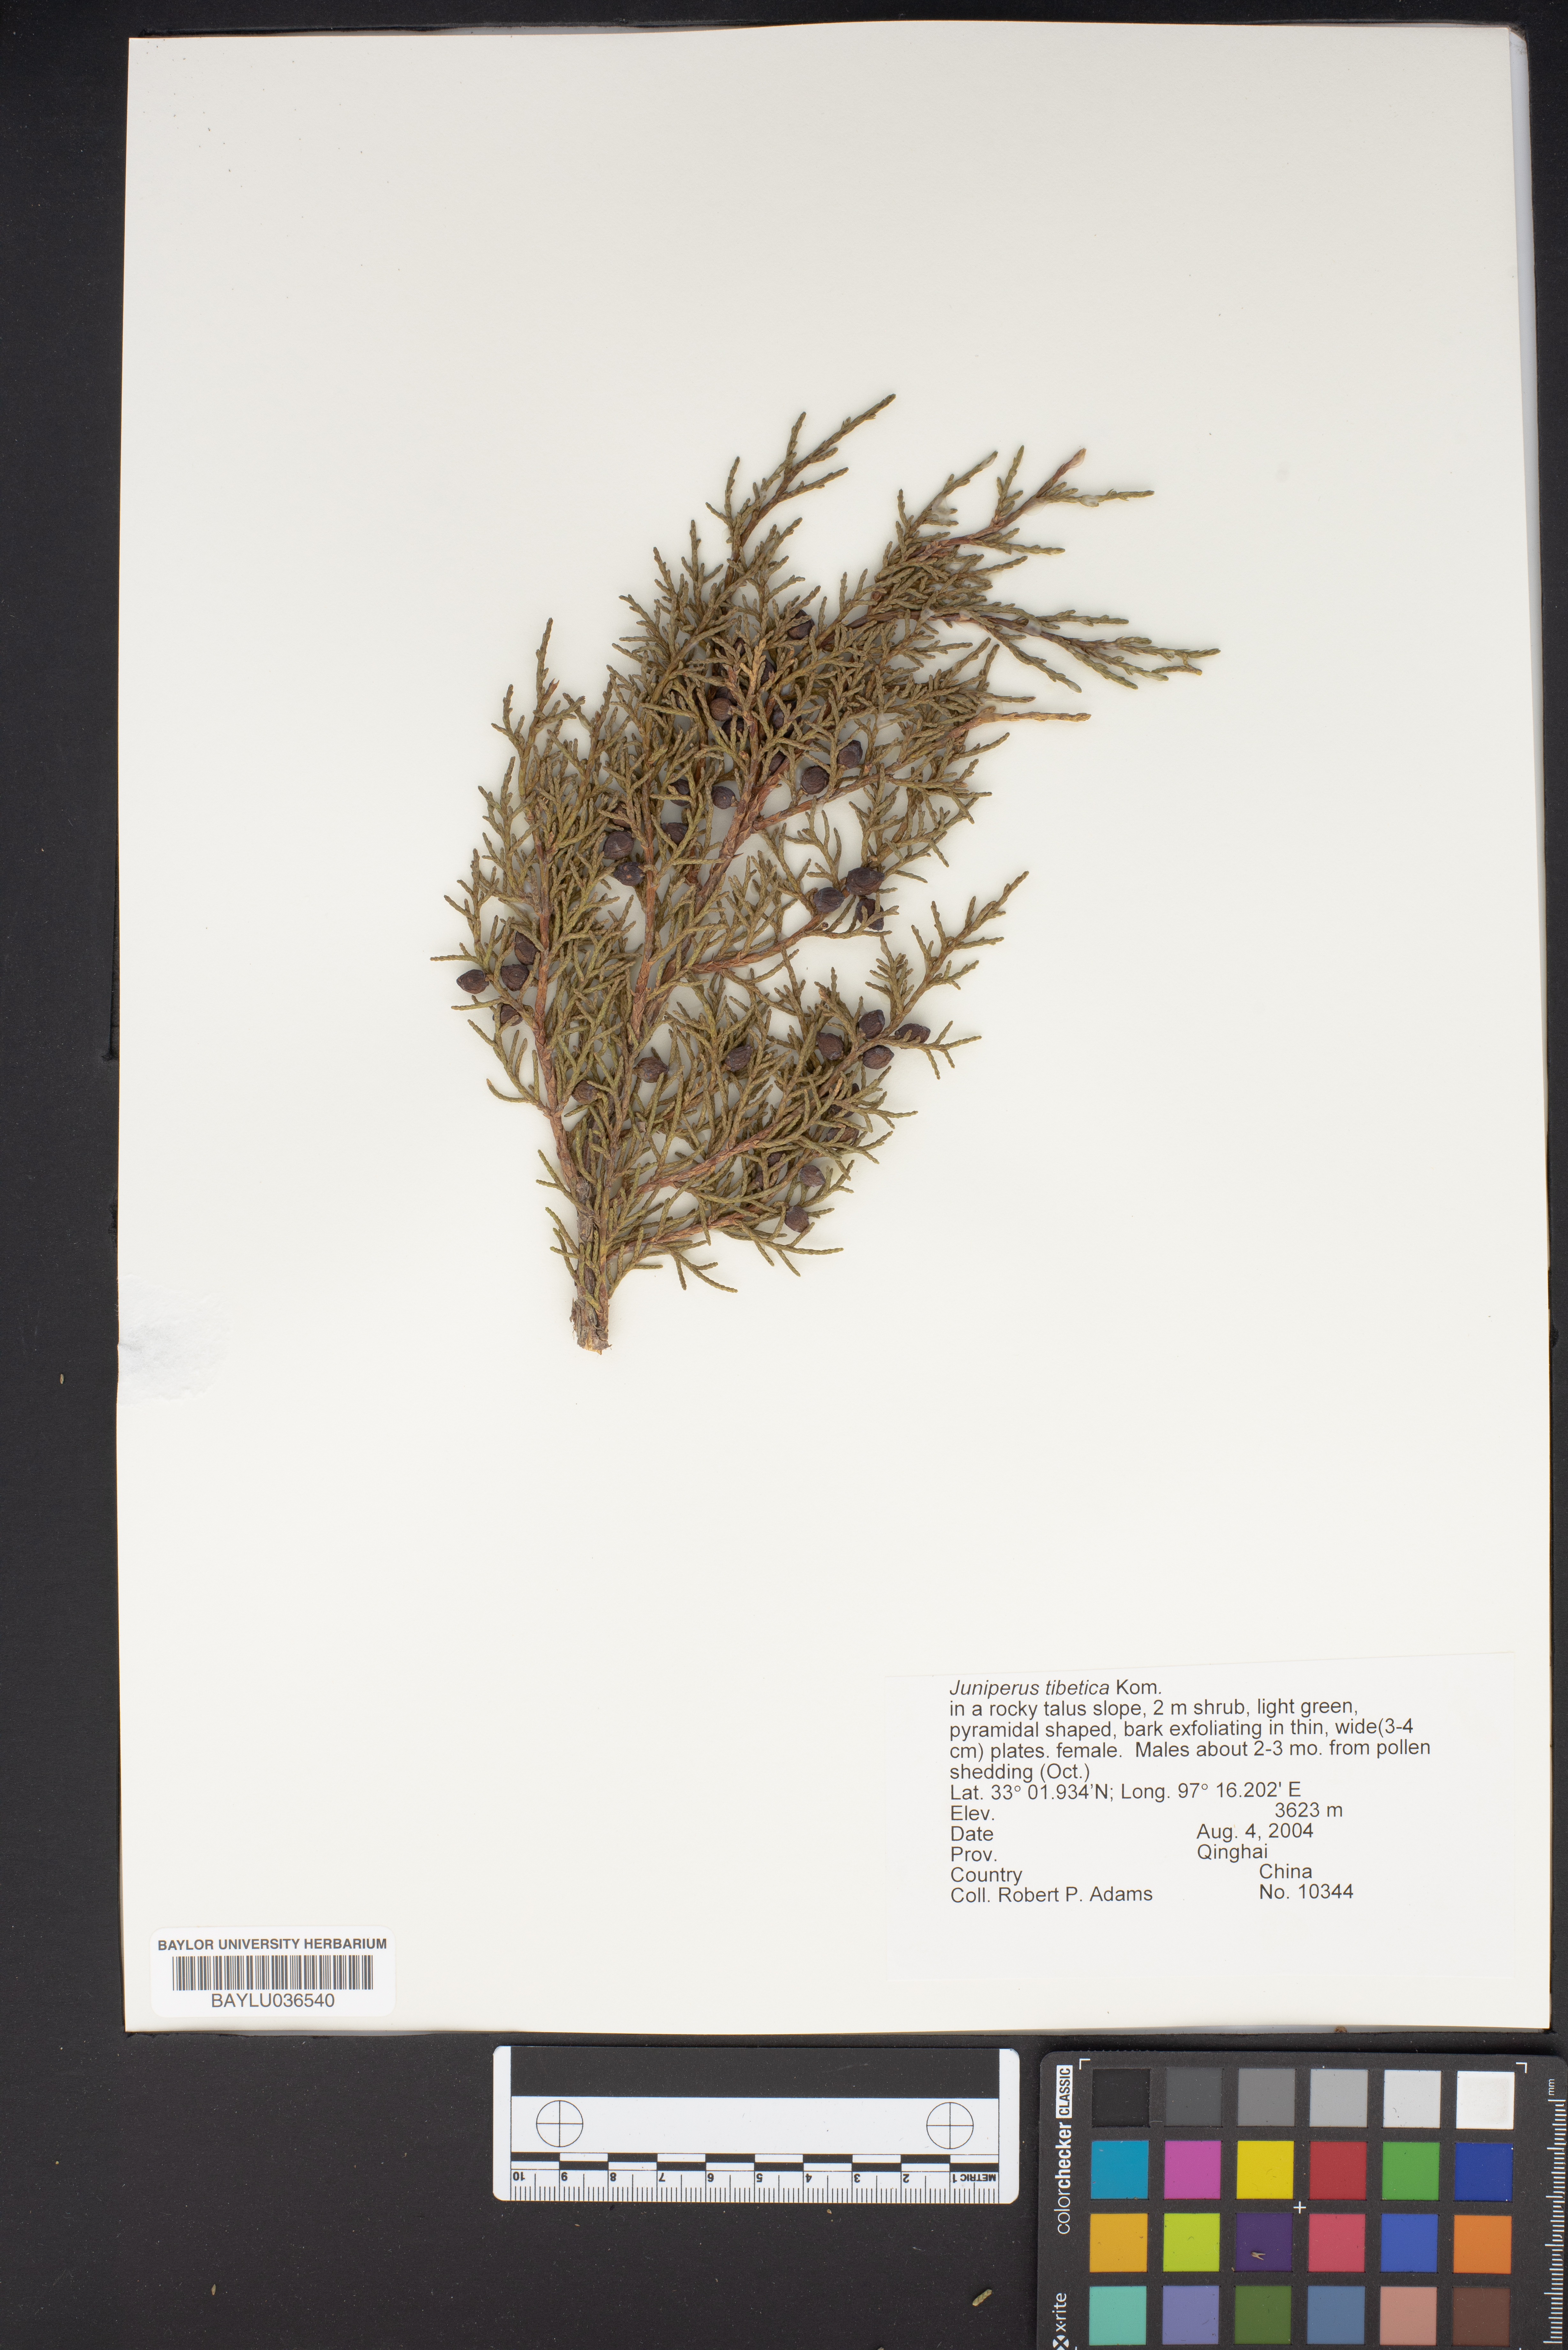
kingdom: Plantae
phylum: Tracheophyta
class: Pinopsida
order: Pinales
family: Cupressaceae
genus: Juniperus
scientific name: Juniperus tibetica
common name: Tibetan juniper
